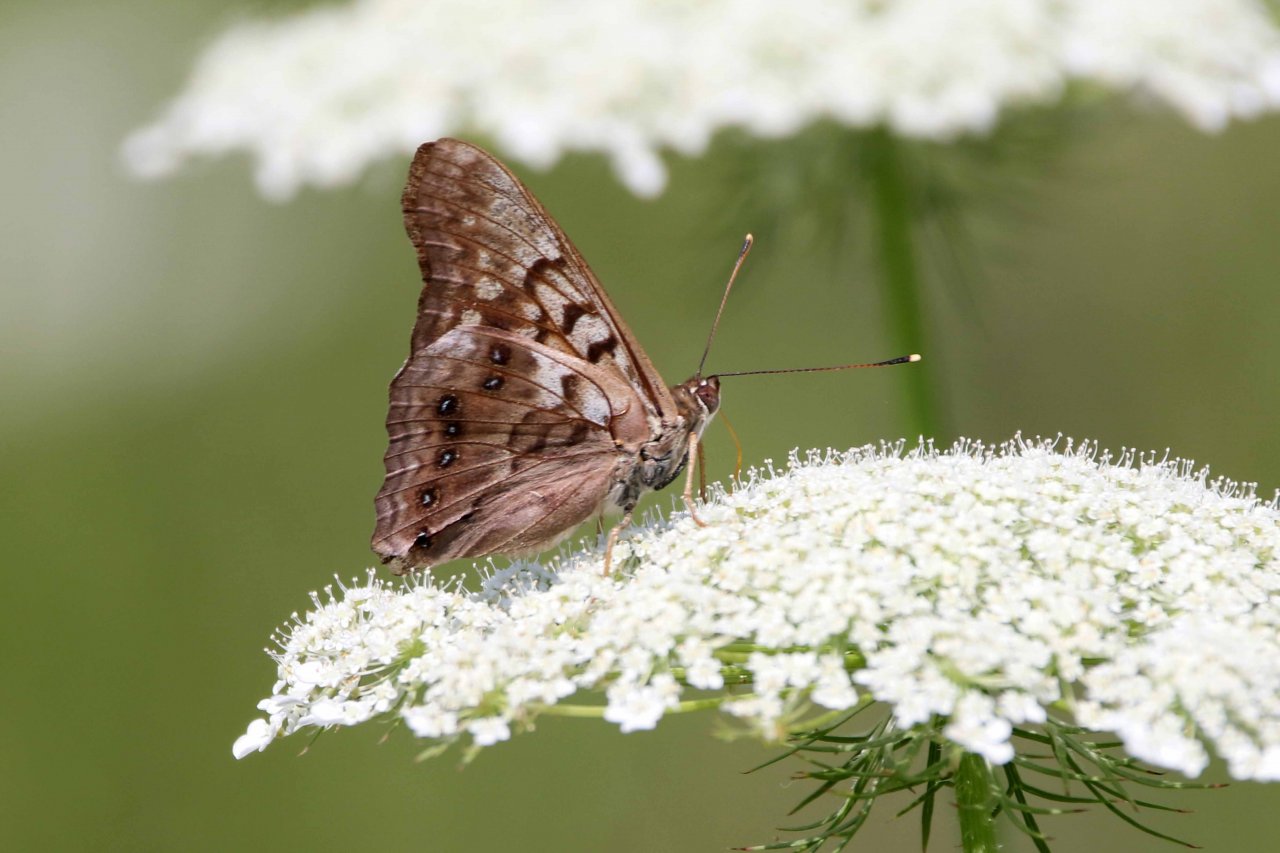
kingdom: Animalia
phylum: Arthropoda
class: Insecta
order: Lepidoptera
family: Nymphalidae
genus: Asterocampa
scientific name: Asterocampa clyton
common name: Tawny Emperor
